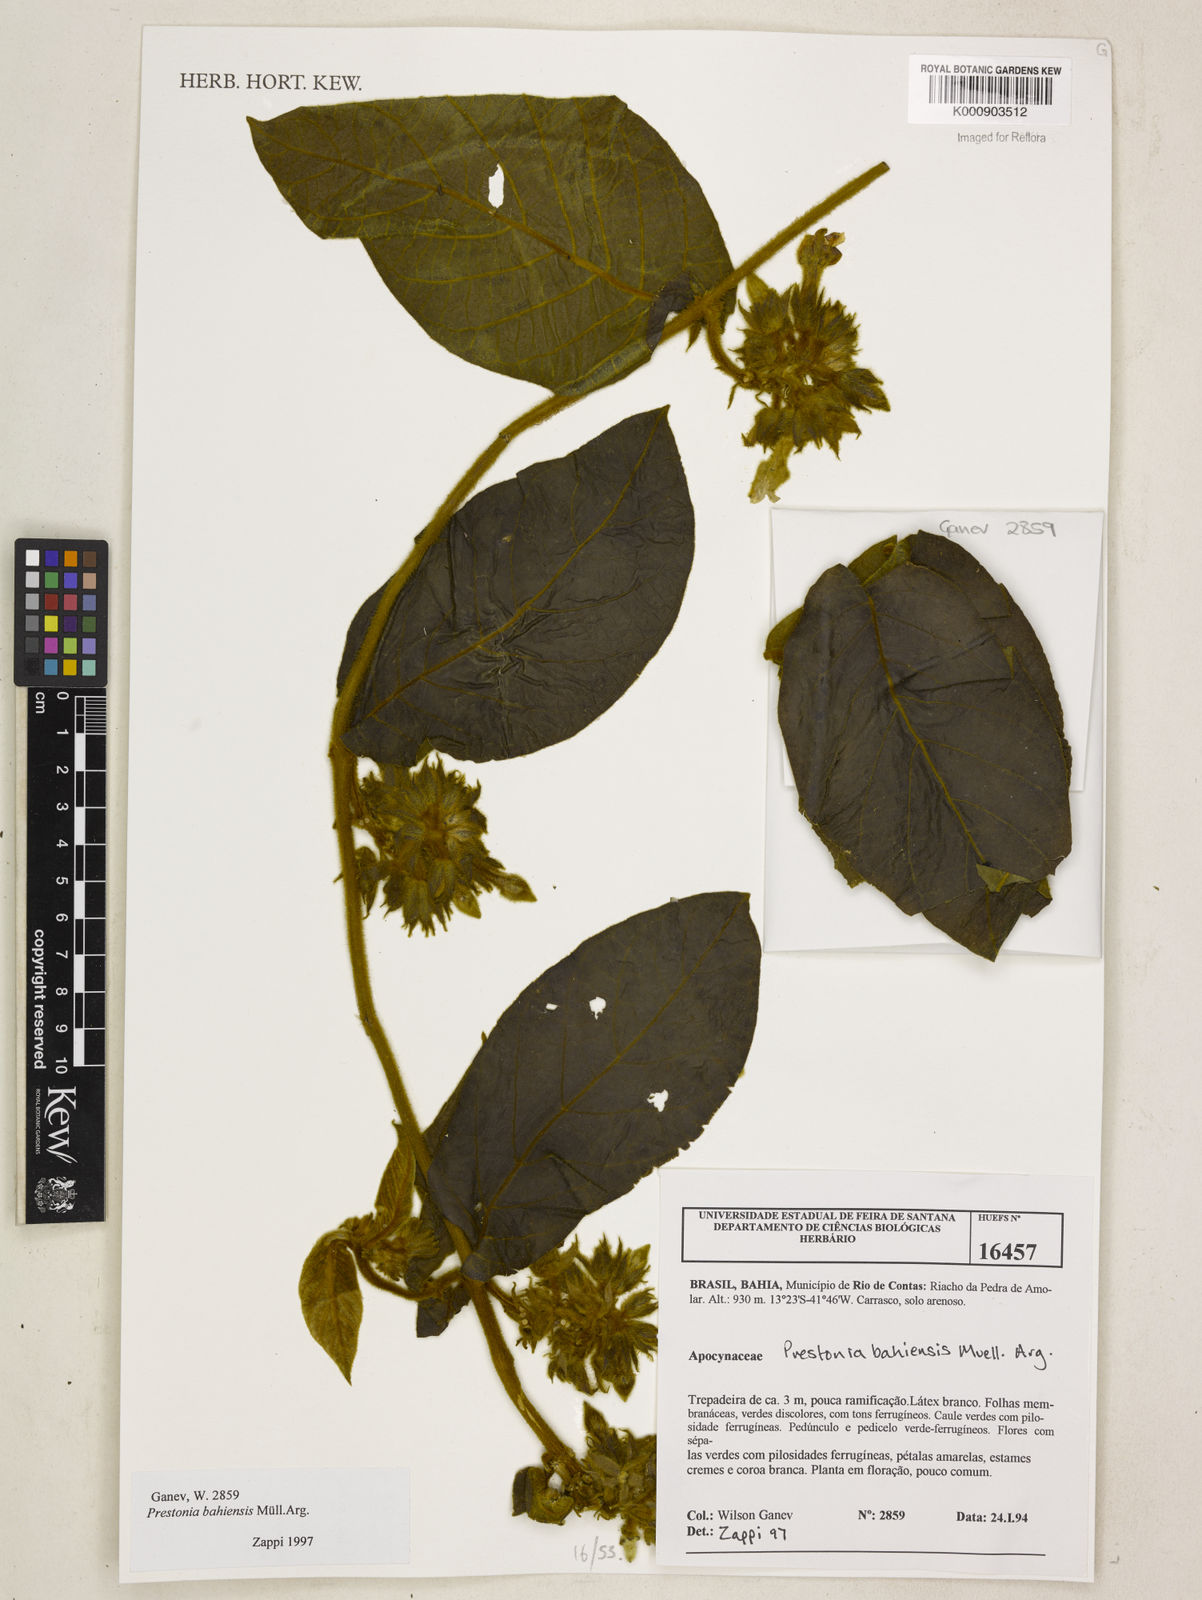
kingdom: Plantae
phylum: Tracheophyta
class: Magnoliopsida
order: Gentianales
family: Apocynaceae
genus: Prestonia
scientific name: Prestonia
